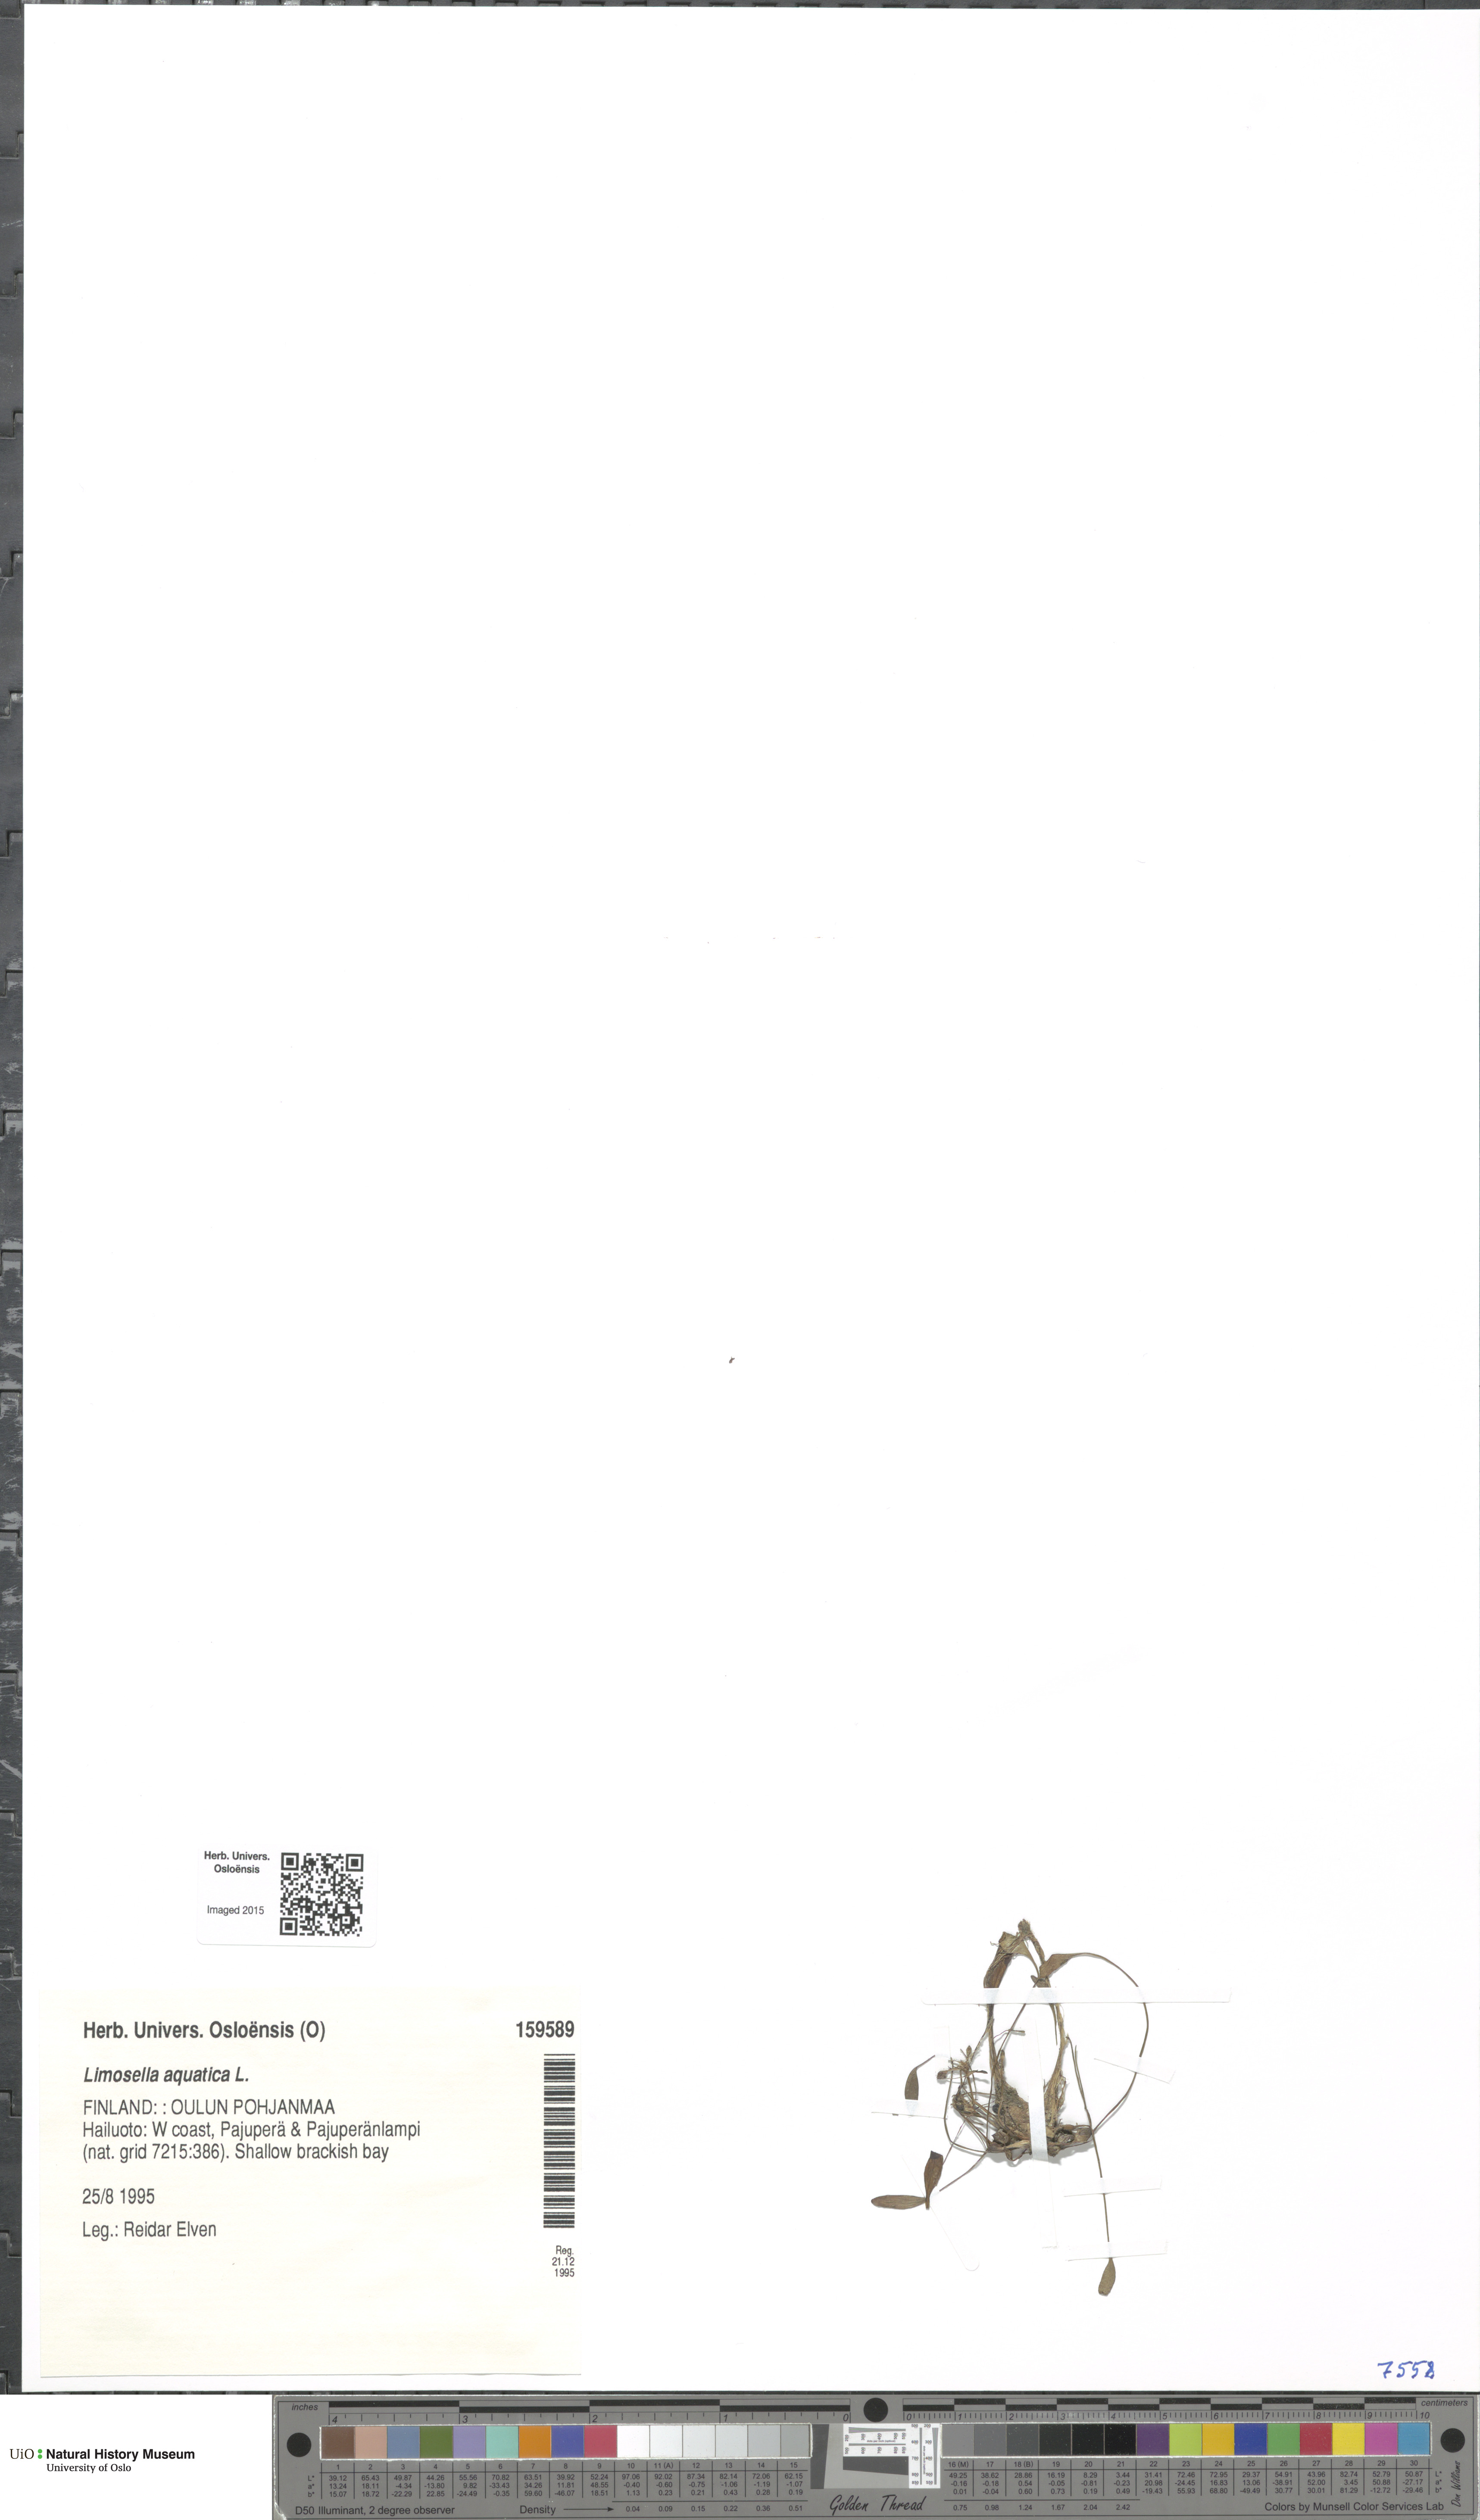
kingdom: Plantae
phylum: Tracheophyta
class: Magnoliopsida
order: Lamiales
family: Scrophulariaceae
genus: Limosella
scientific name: Limosella aquatica
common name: Mudwort
